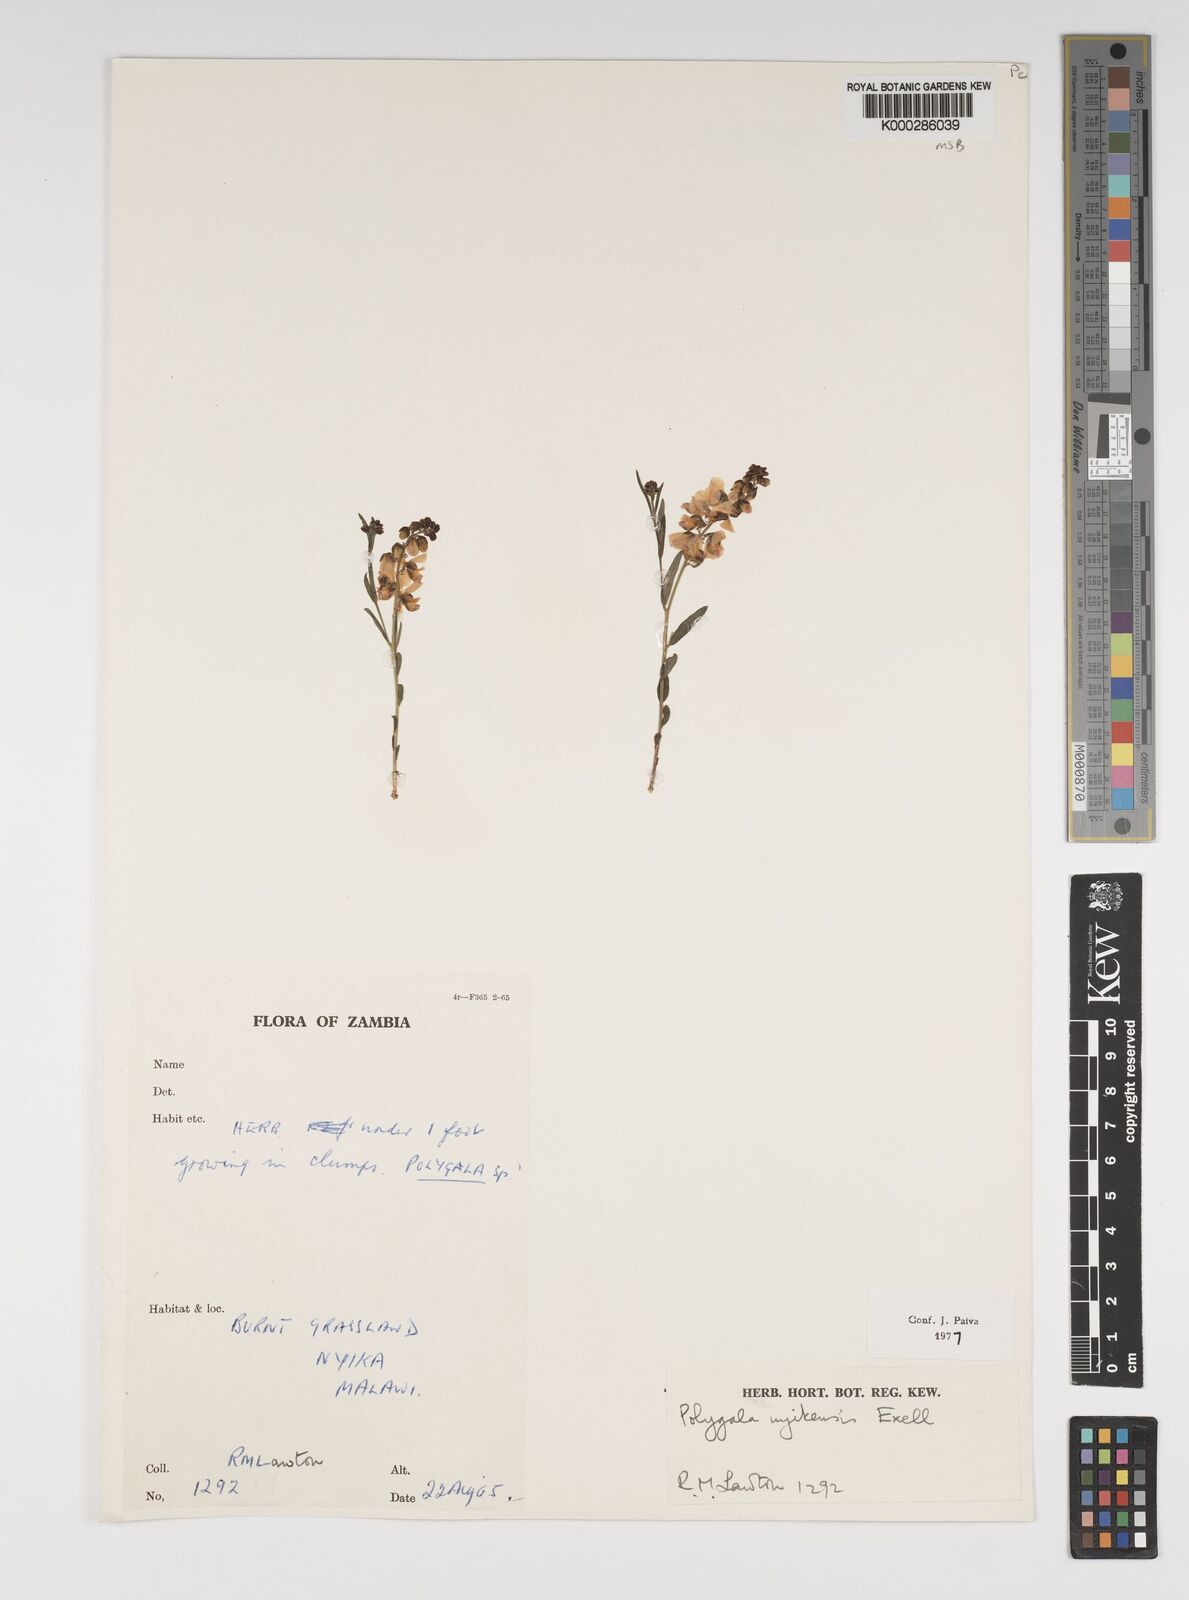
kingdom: Plantae
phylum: Tracheophyta
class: Magnoliopsida
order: Fabales
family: Polygalaceae
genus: Polygala
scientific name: Polygala nyikensis
